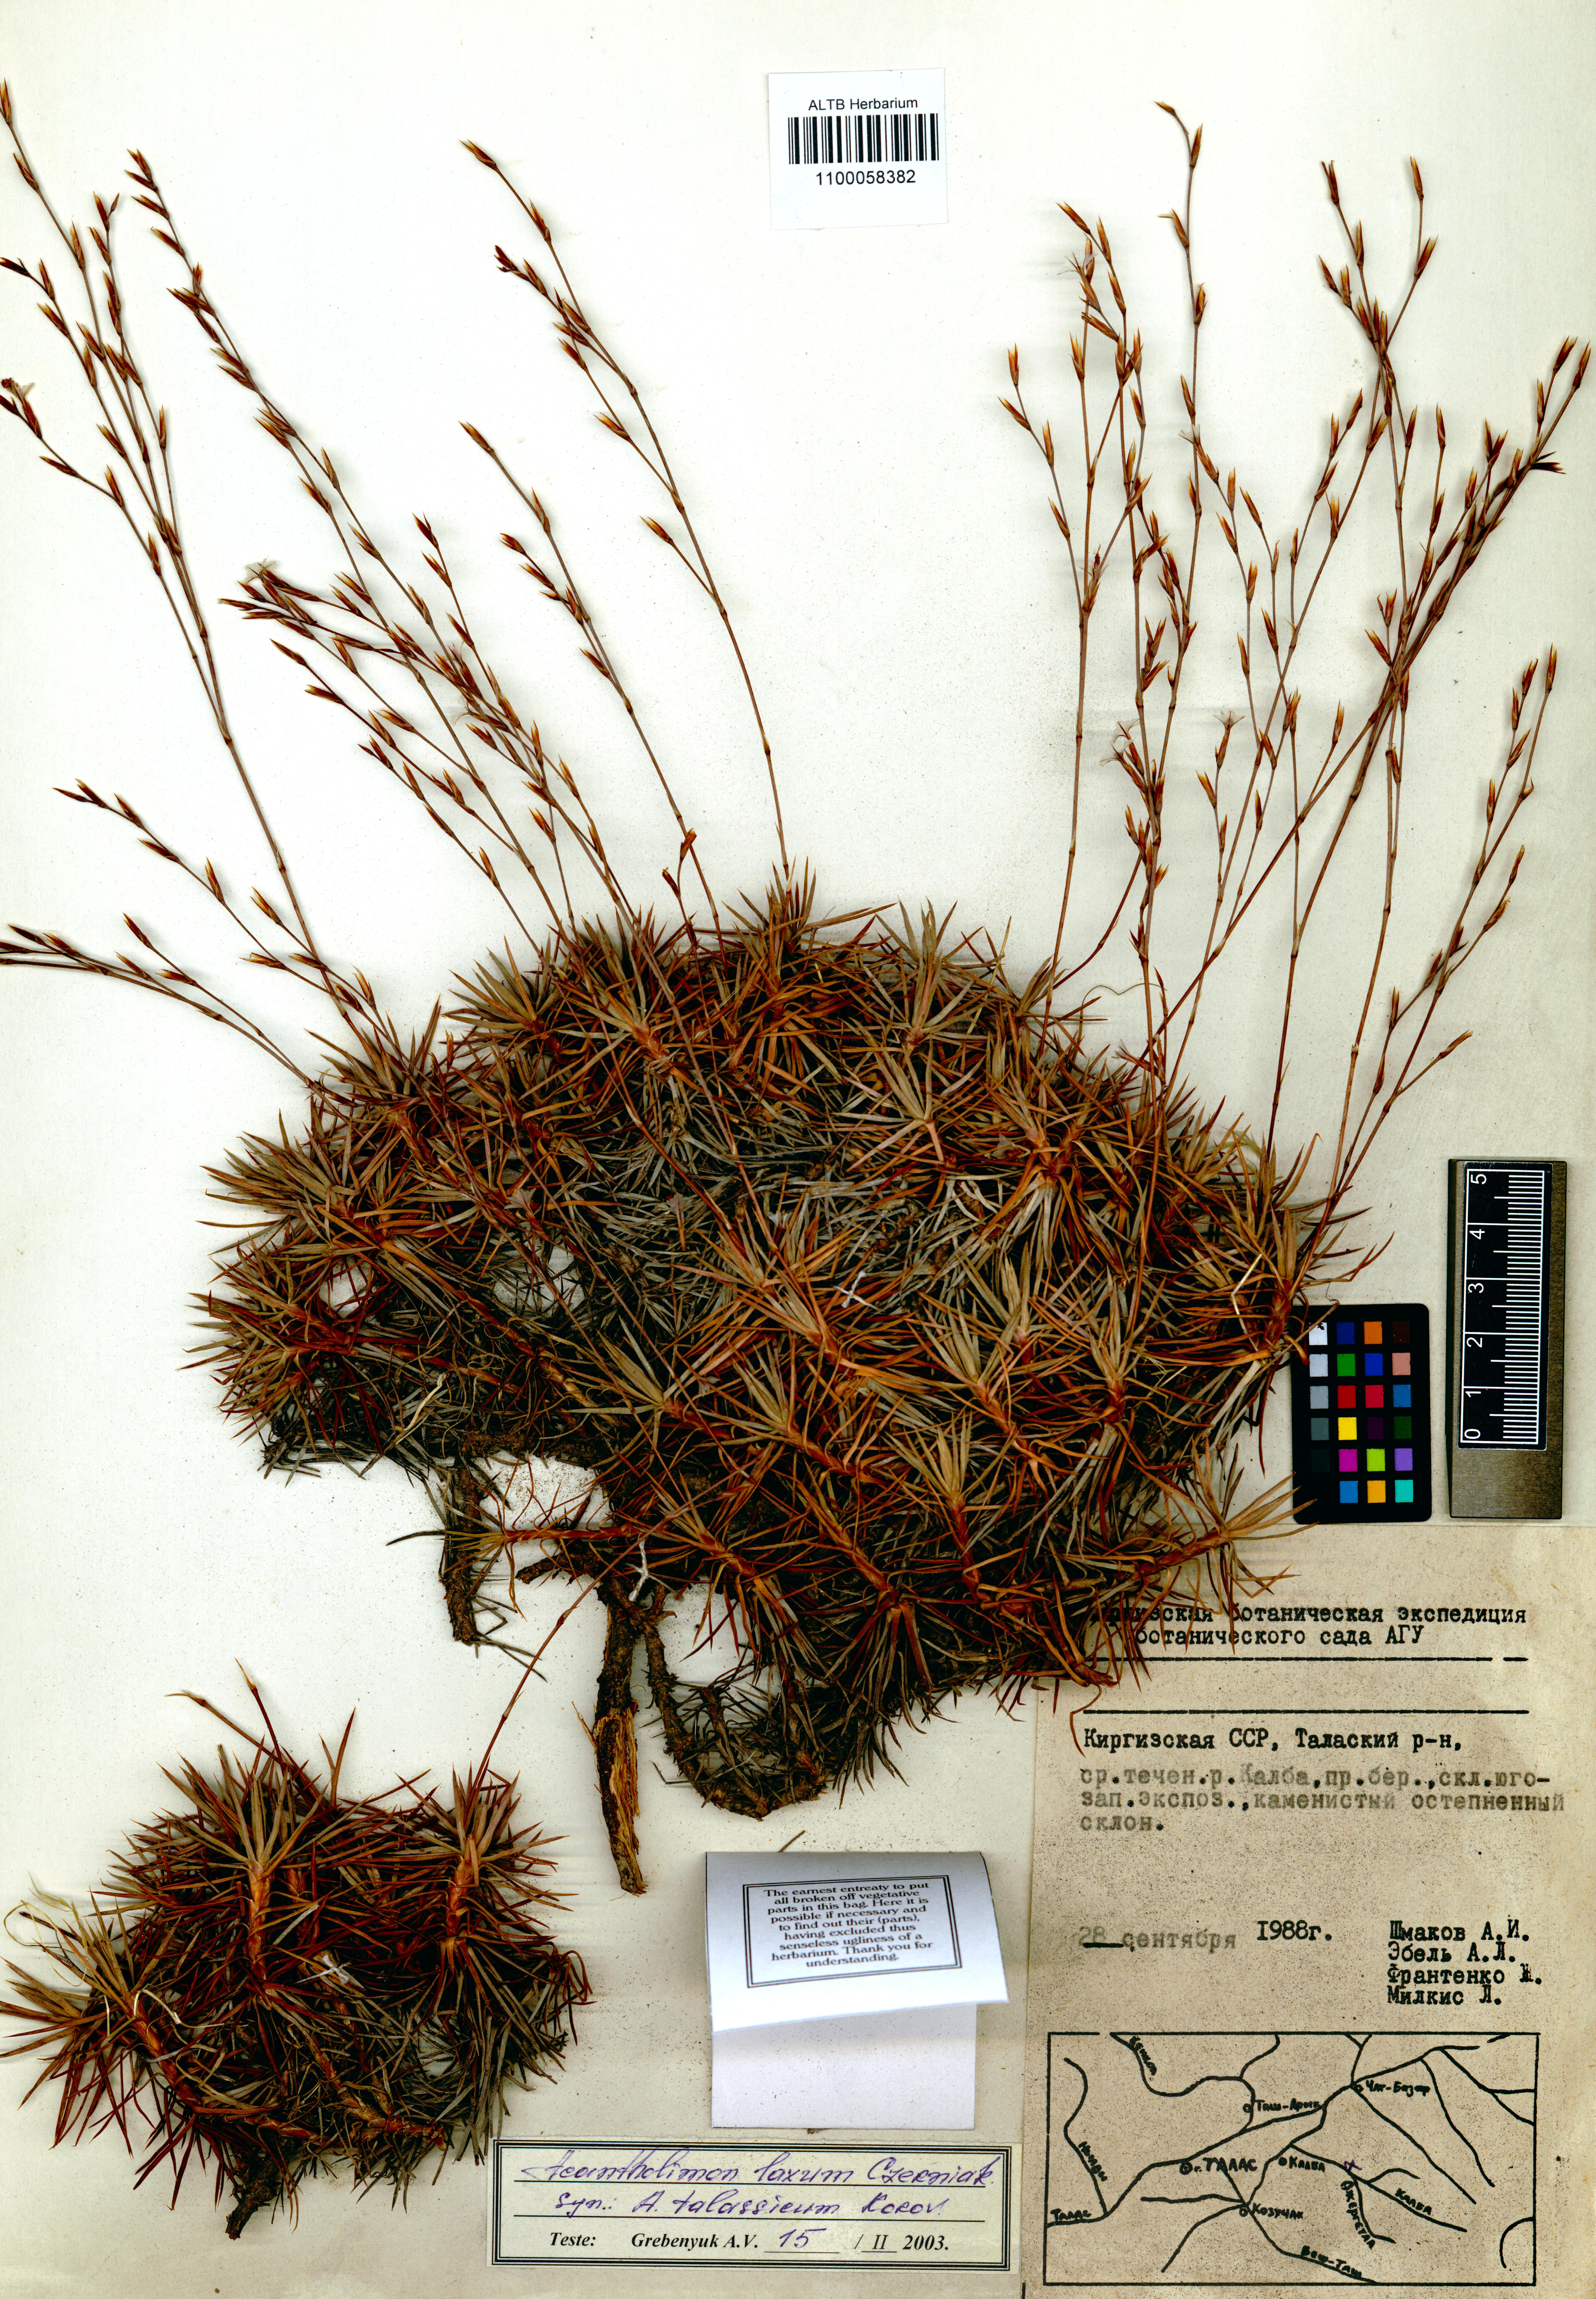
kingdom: Plantae
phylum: Tracheophyta
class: Magnoliopsida
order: Caryophyllales
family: Plumbaginaceae
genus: Acantholimon
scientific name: Acantholimon laxum
